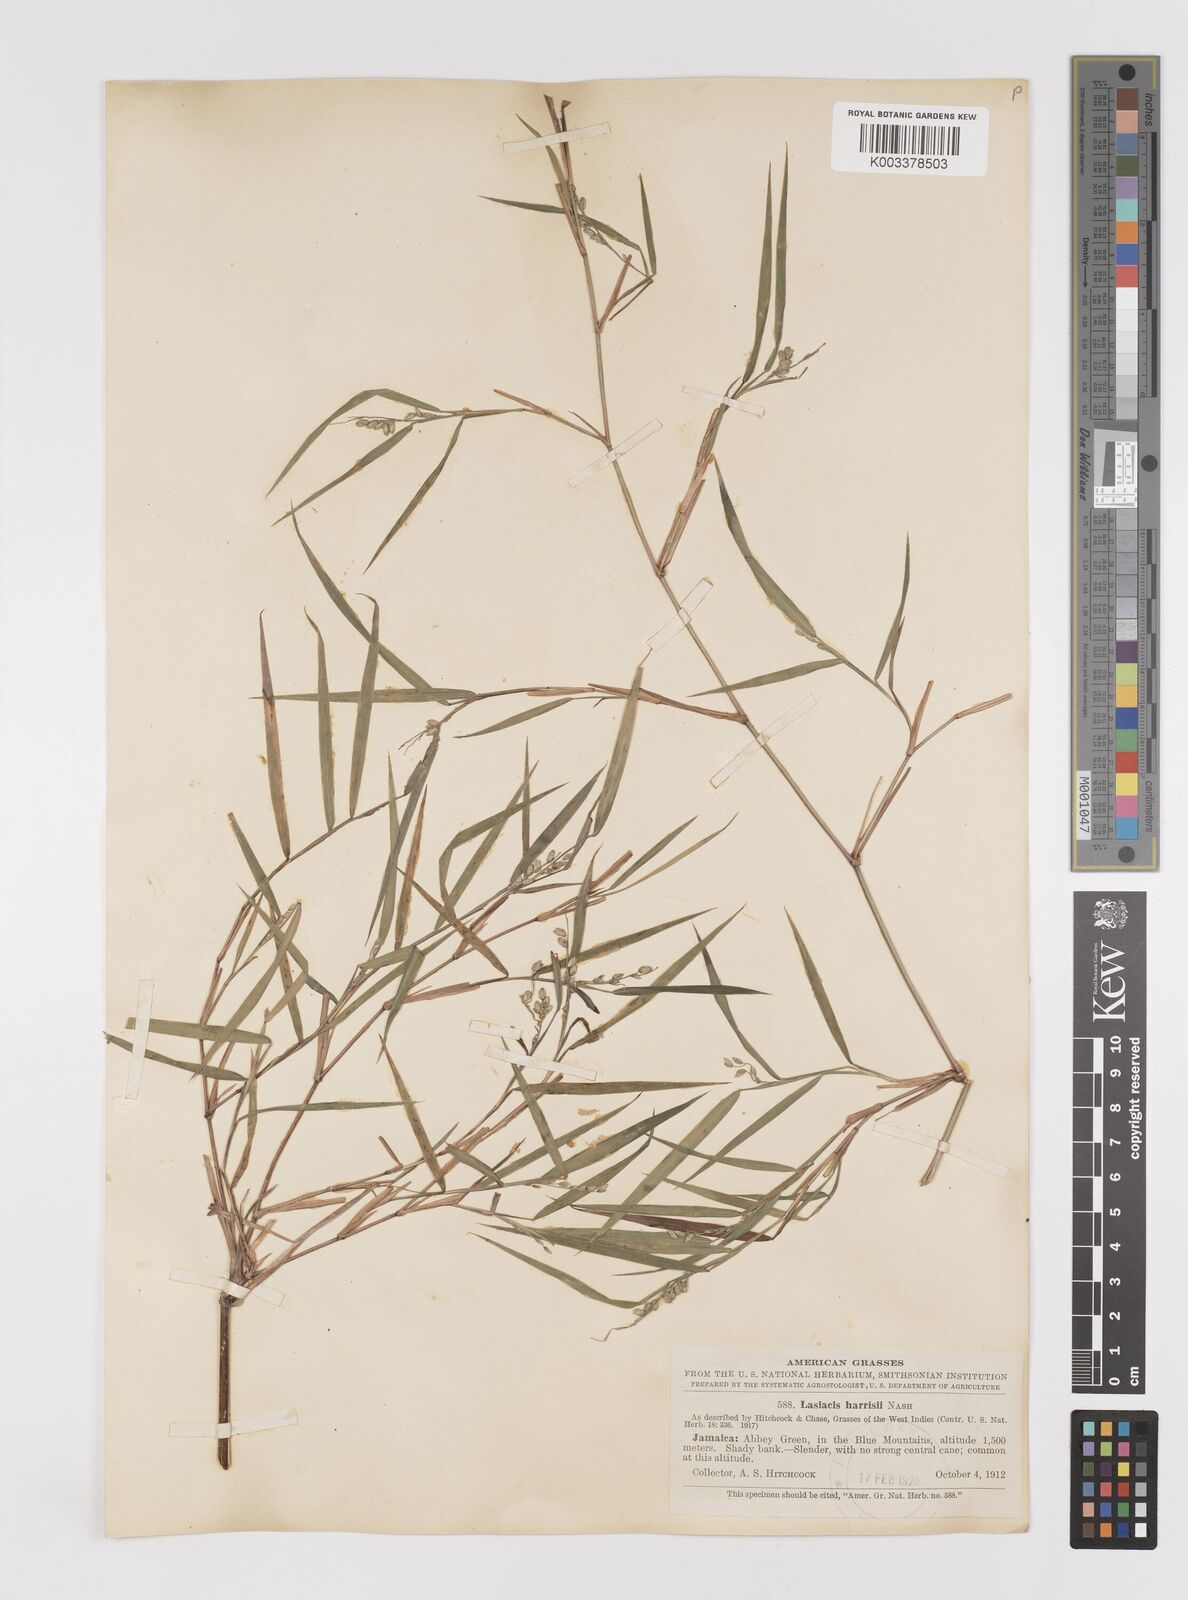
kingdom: Plantae
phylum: Tracheophyta
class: Liliopsida
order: Poales
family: Poaceae
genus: Lasiacis
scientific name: Lasiacis divaricata
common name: Smallcane
